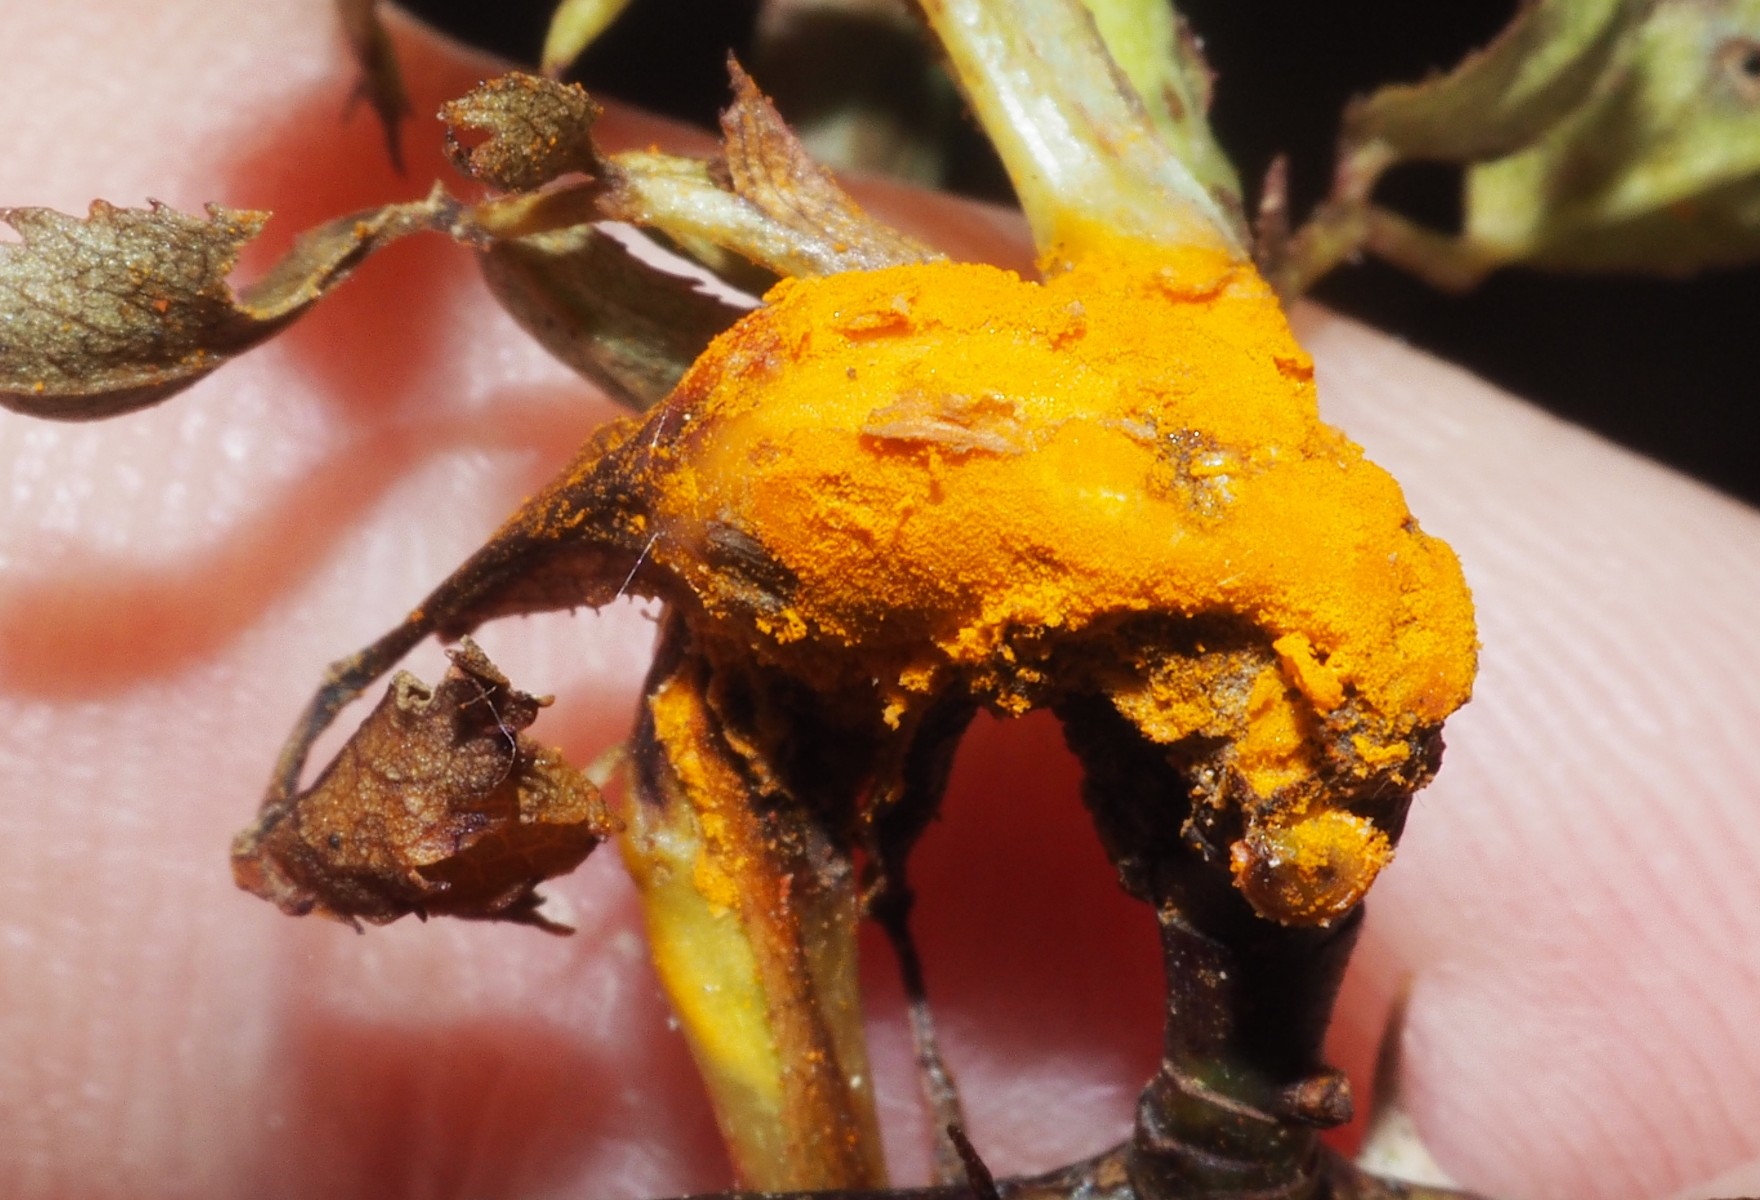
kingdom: Fungi
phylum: Basidiomycota
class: Pucciniomycetes
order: Pucciniales
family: Phragmidiaceae
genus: Phragmidium
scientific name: Phragmidium mucronatum
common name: rose-flercellerust
